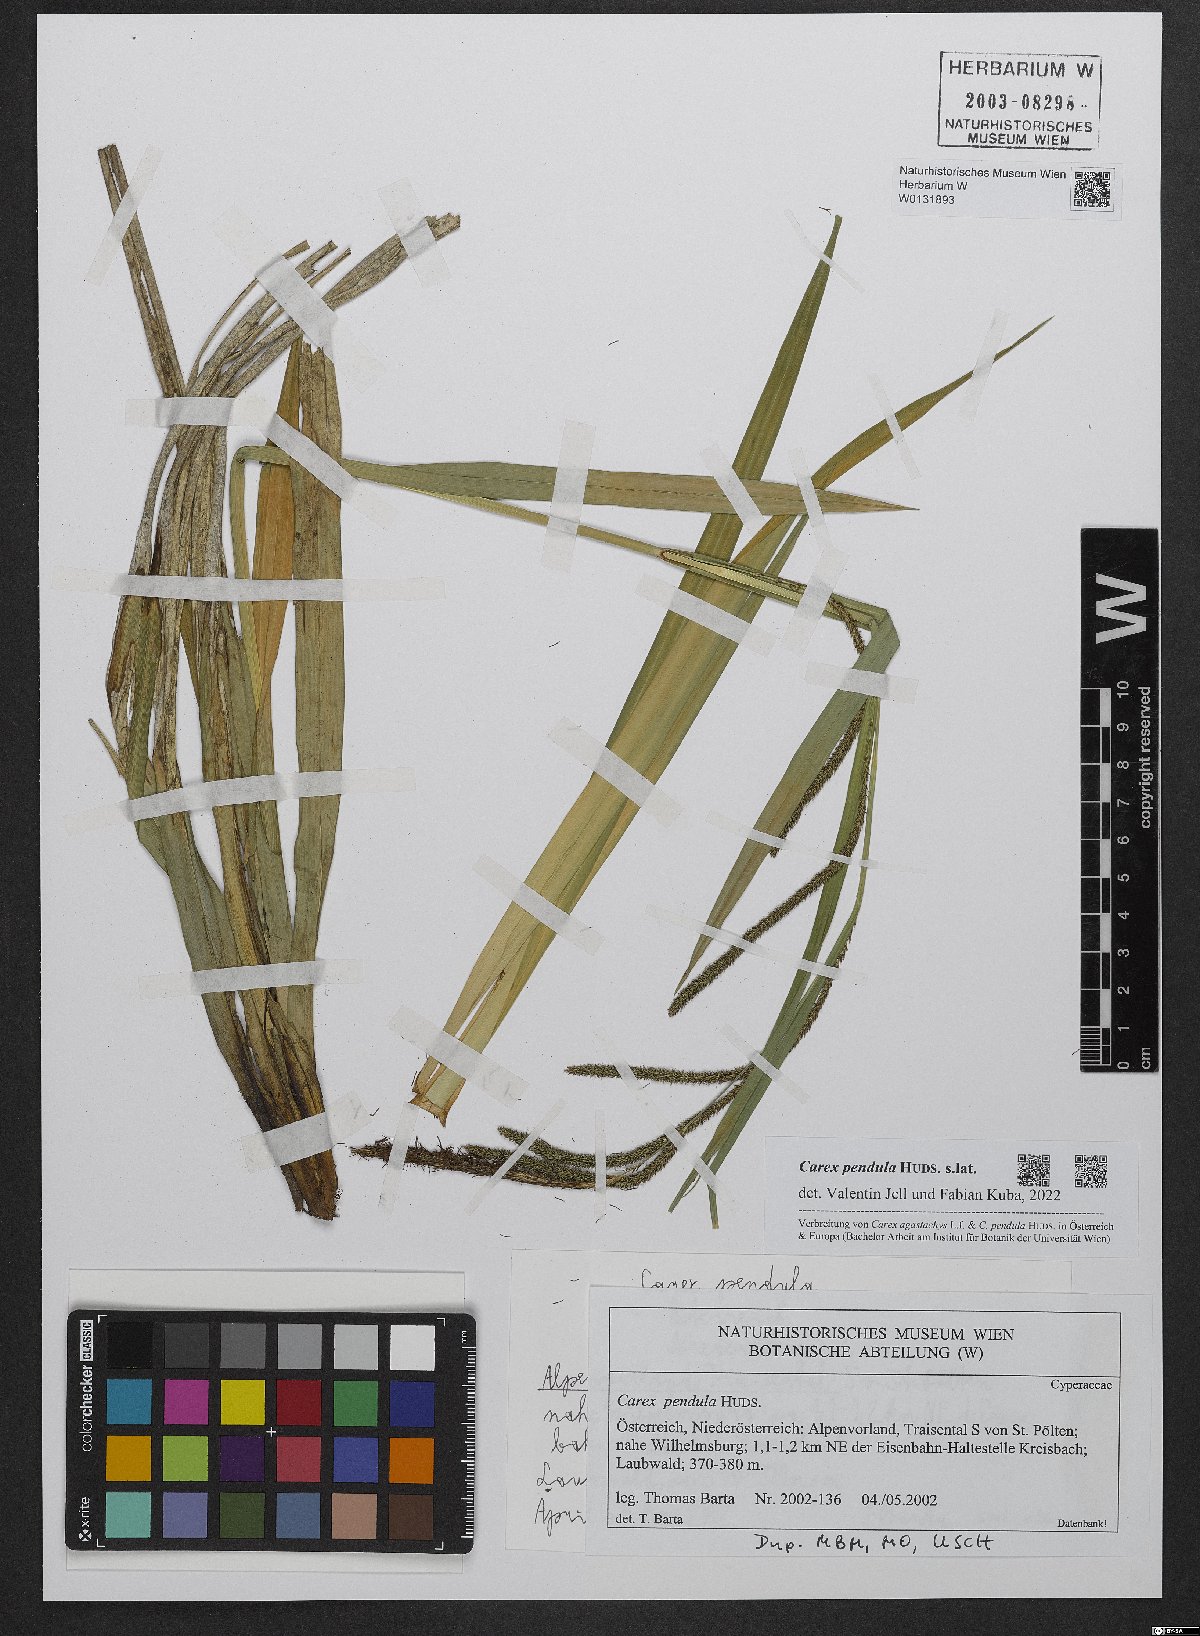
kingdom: Plantae
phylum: Tracheophyta
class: Liliopsida
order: Poales
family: Cyperaceae
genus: Carex
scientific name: Carex pendula
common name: Pendulous sedge
